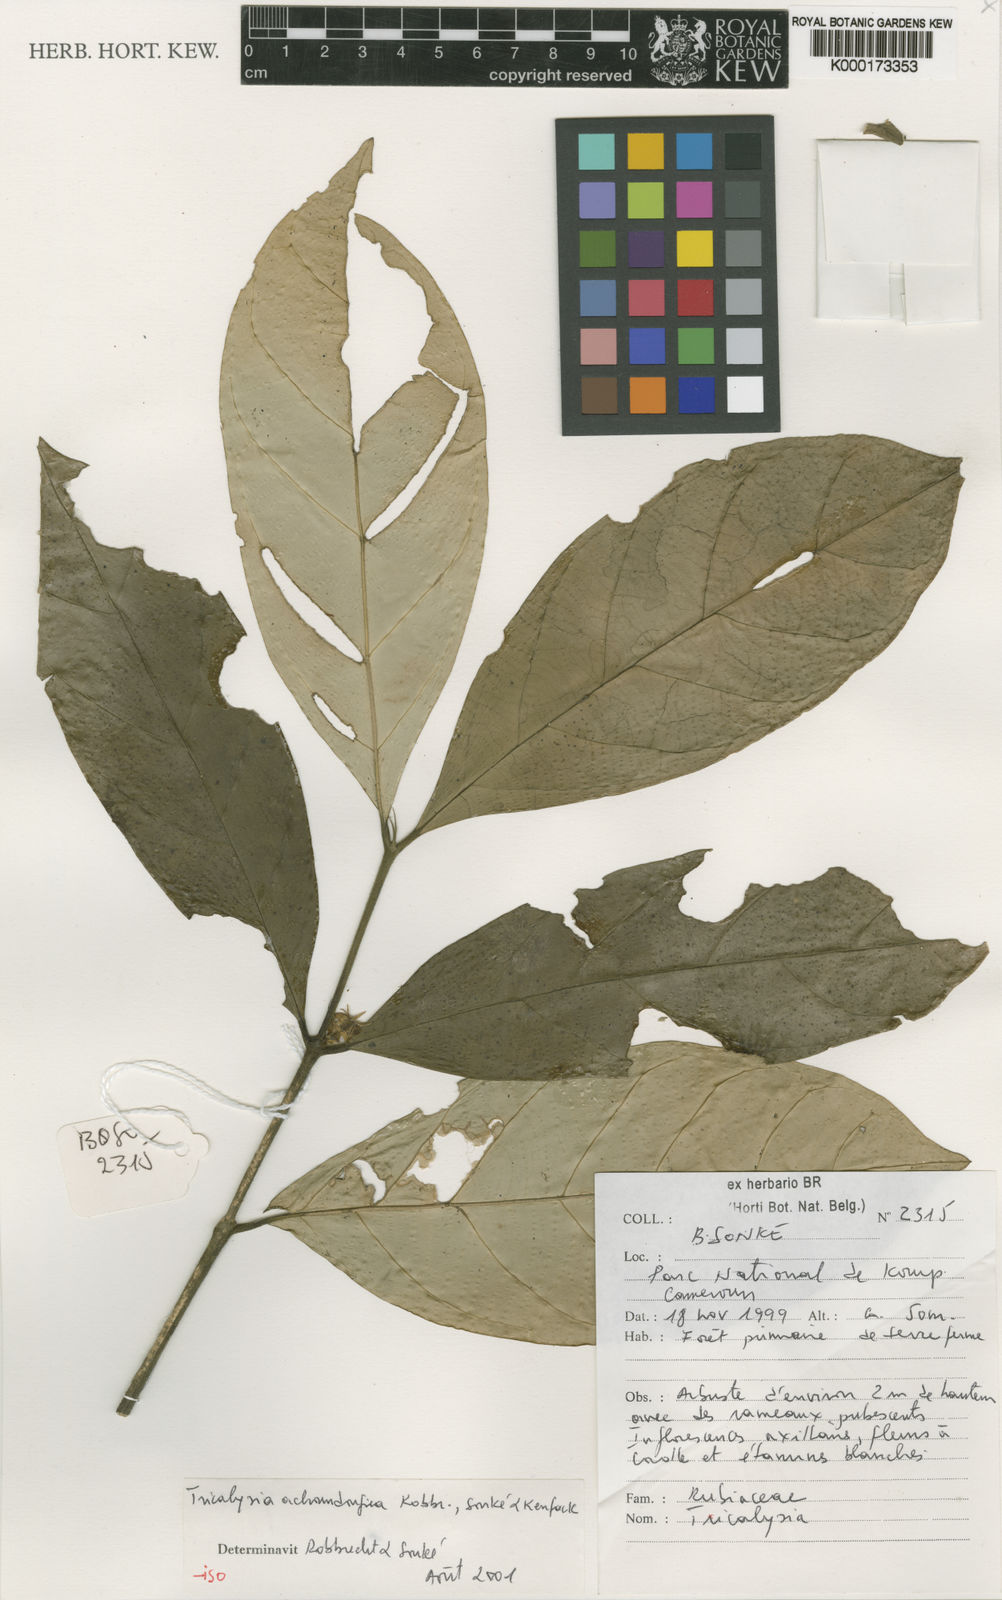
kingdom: Plantae
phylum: Tracheophyta
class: Magnoliopsida
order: Gentianales
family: Rubiaceae
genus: Tricalysia
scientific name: Tricalysia
